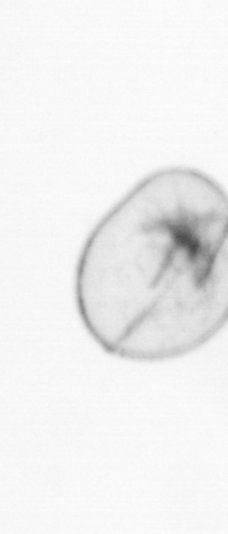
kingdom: Chromista
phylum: Myzozoa
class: Dinophyceae
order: Noctilucales
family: Noctilucaceae
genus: Noctiluca
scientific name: Noctiluca scintillans
